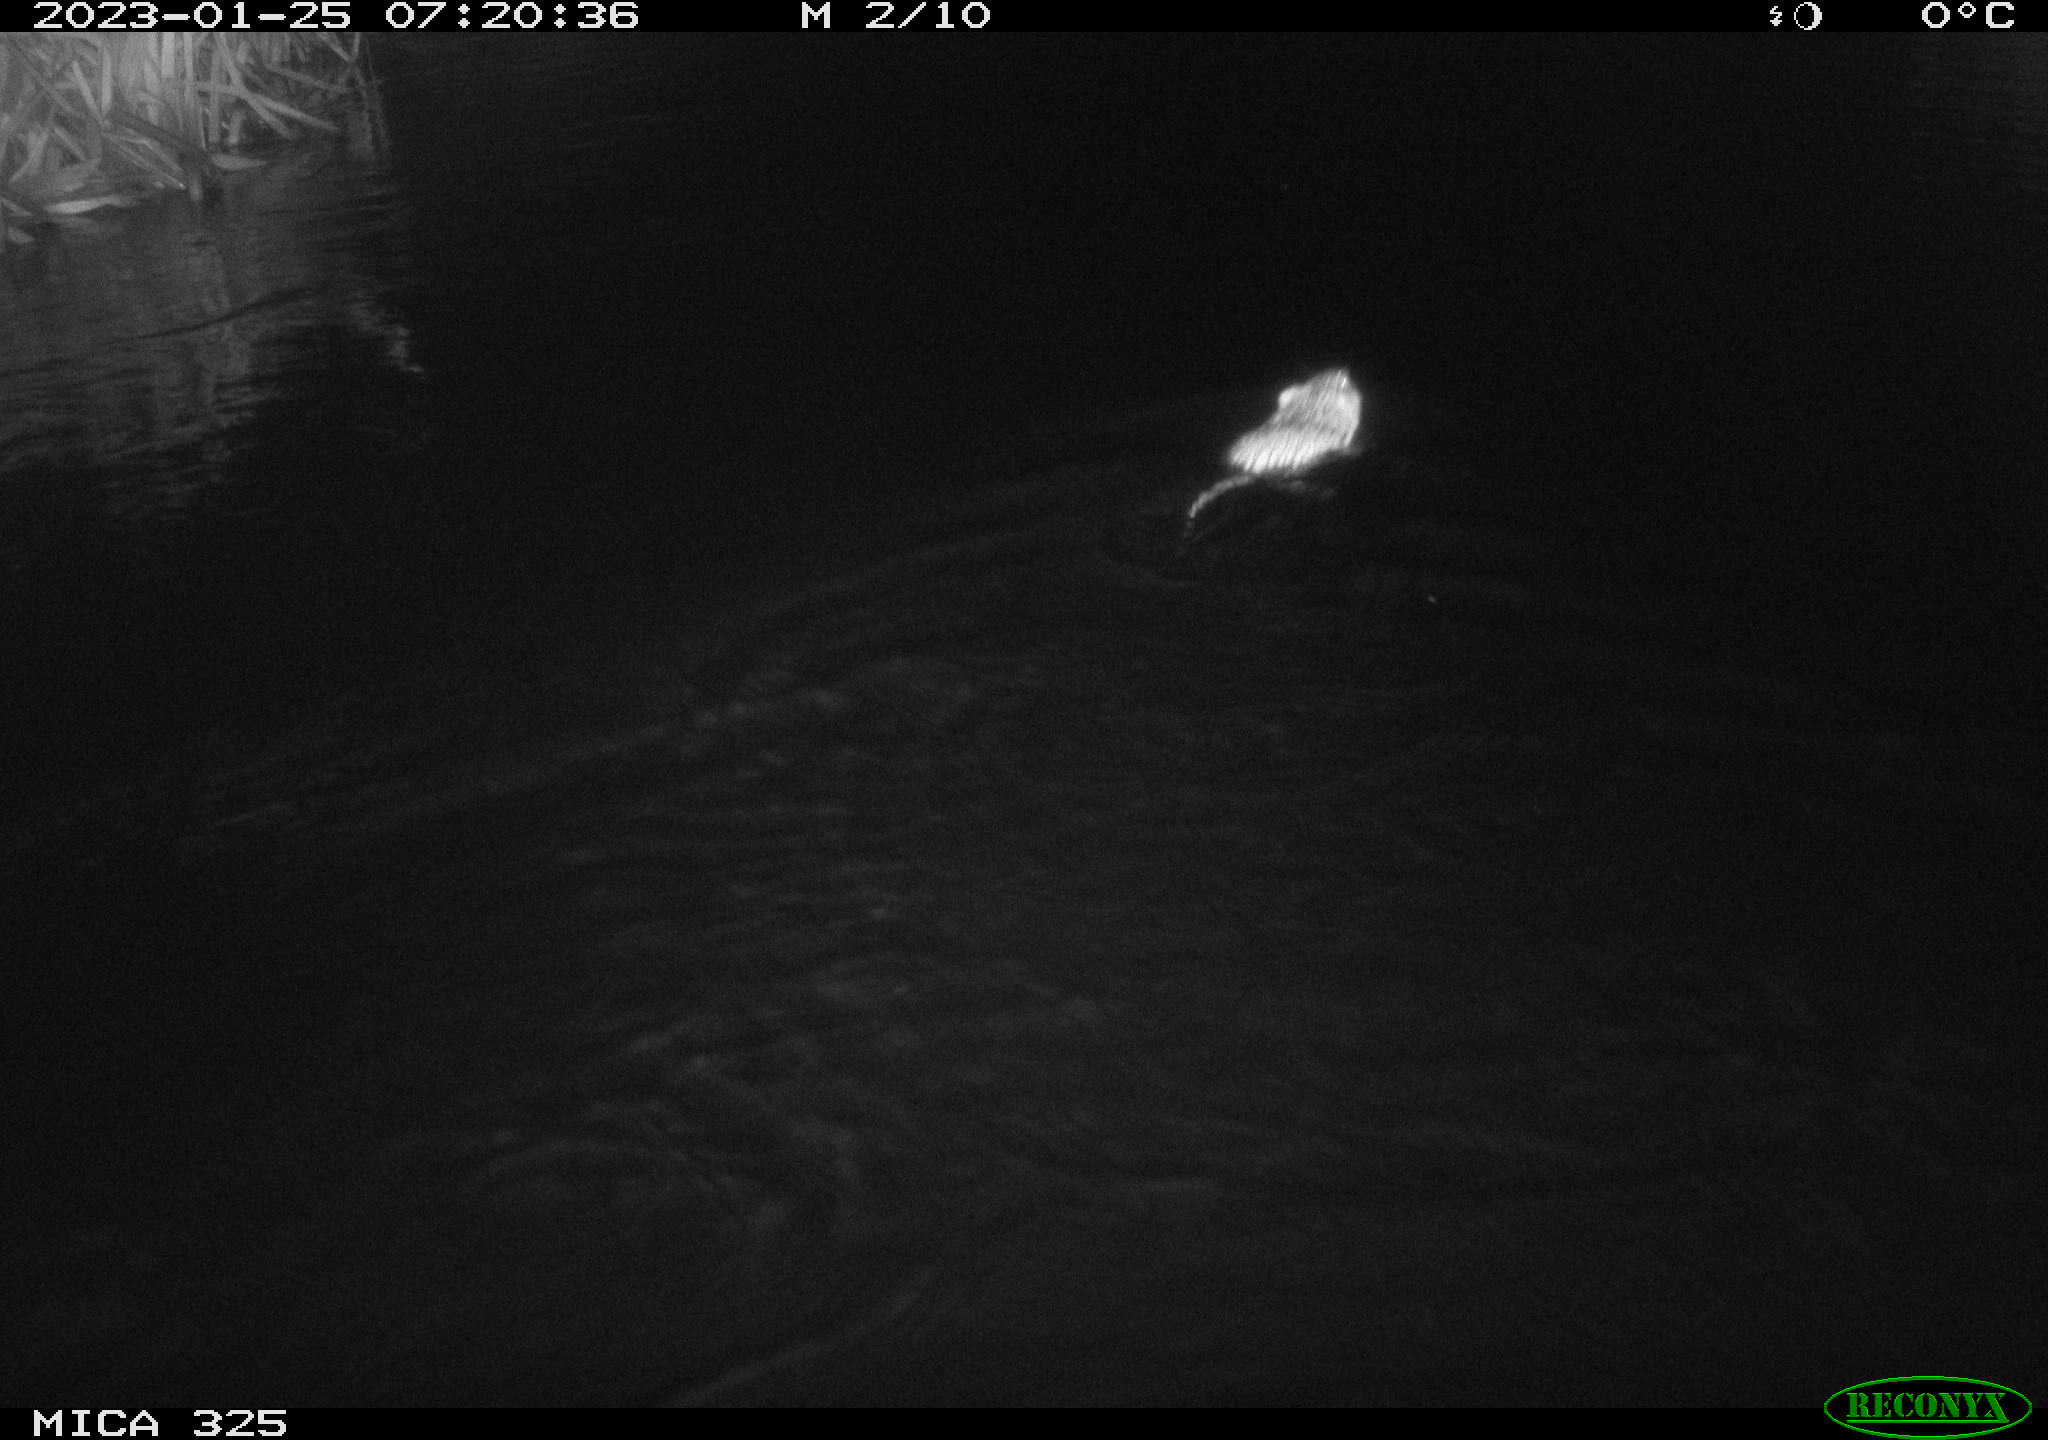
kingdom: Animalia
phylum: Chordata
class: Mammalia
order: Rodentia
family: Cricetidae
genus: Ondatra
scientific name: Ondatra zibethicus
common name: Muskrat
